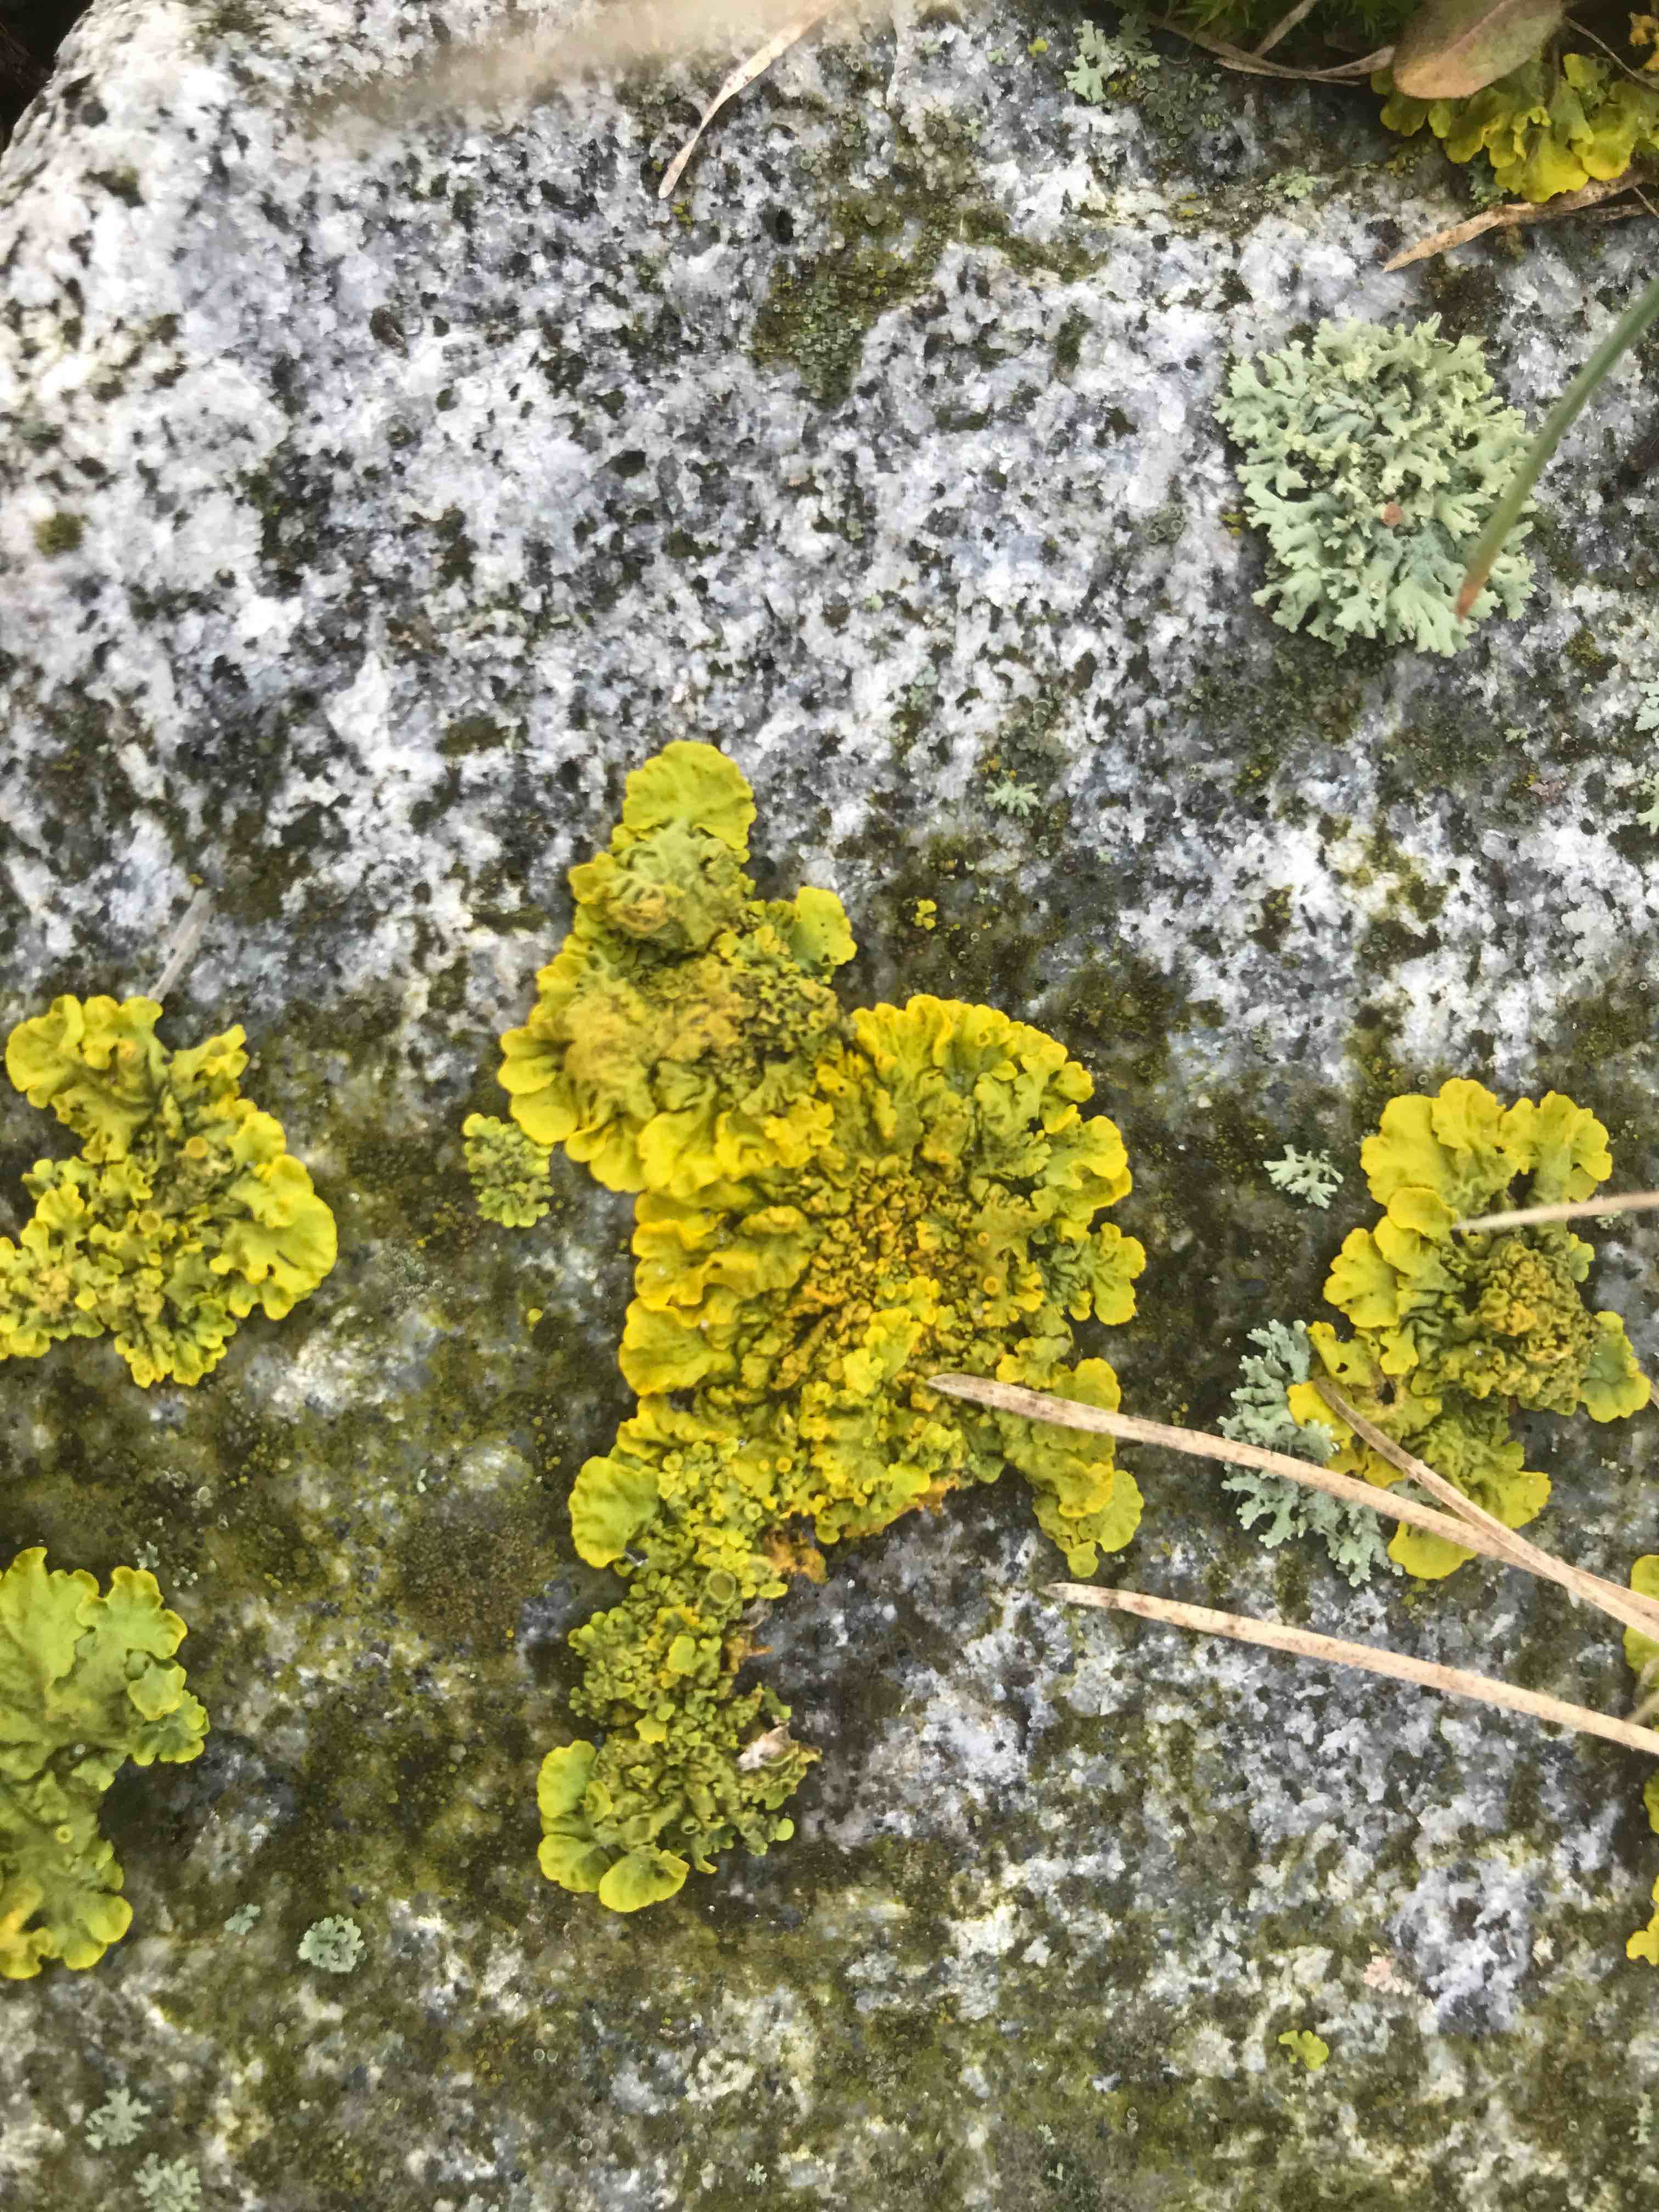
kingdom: Fungi
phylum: Ascomycota
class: Lecanoromycetes
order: Teloschistales
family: Teloschistaceae
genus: Xanthoria
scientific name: Xanthoria parietina
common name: almindelig væggelav
